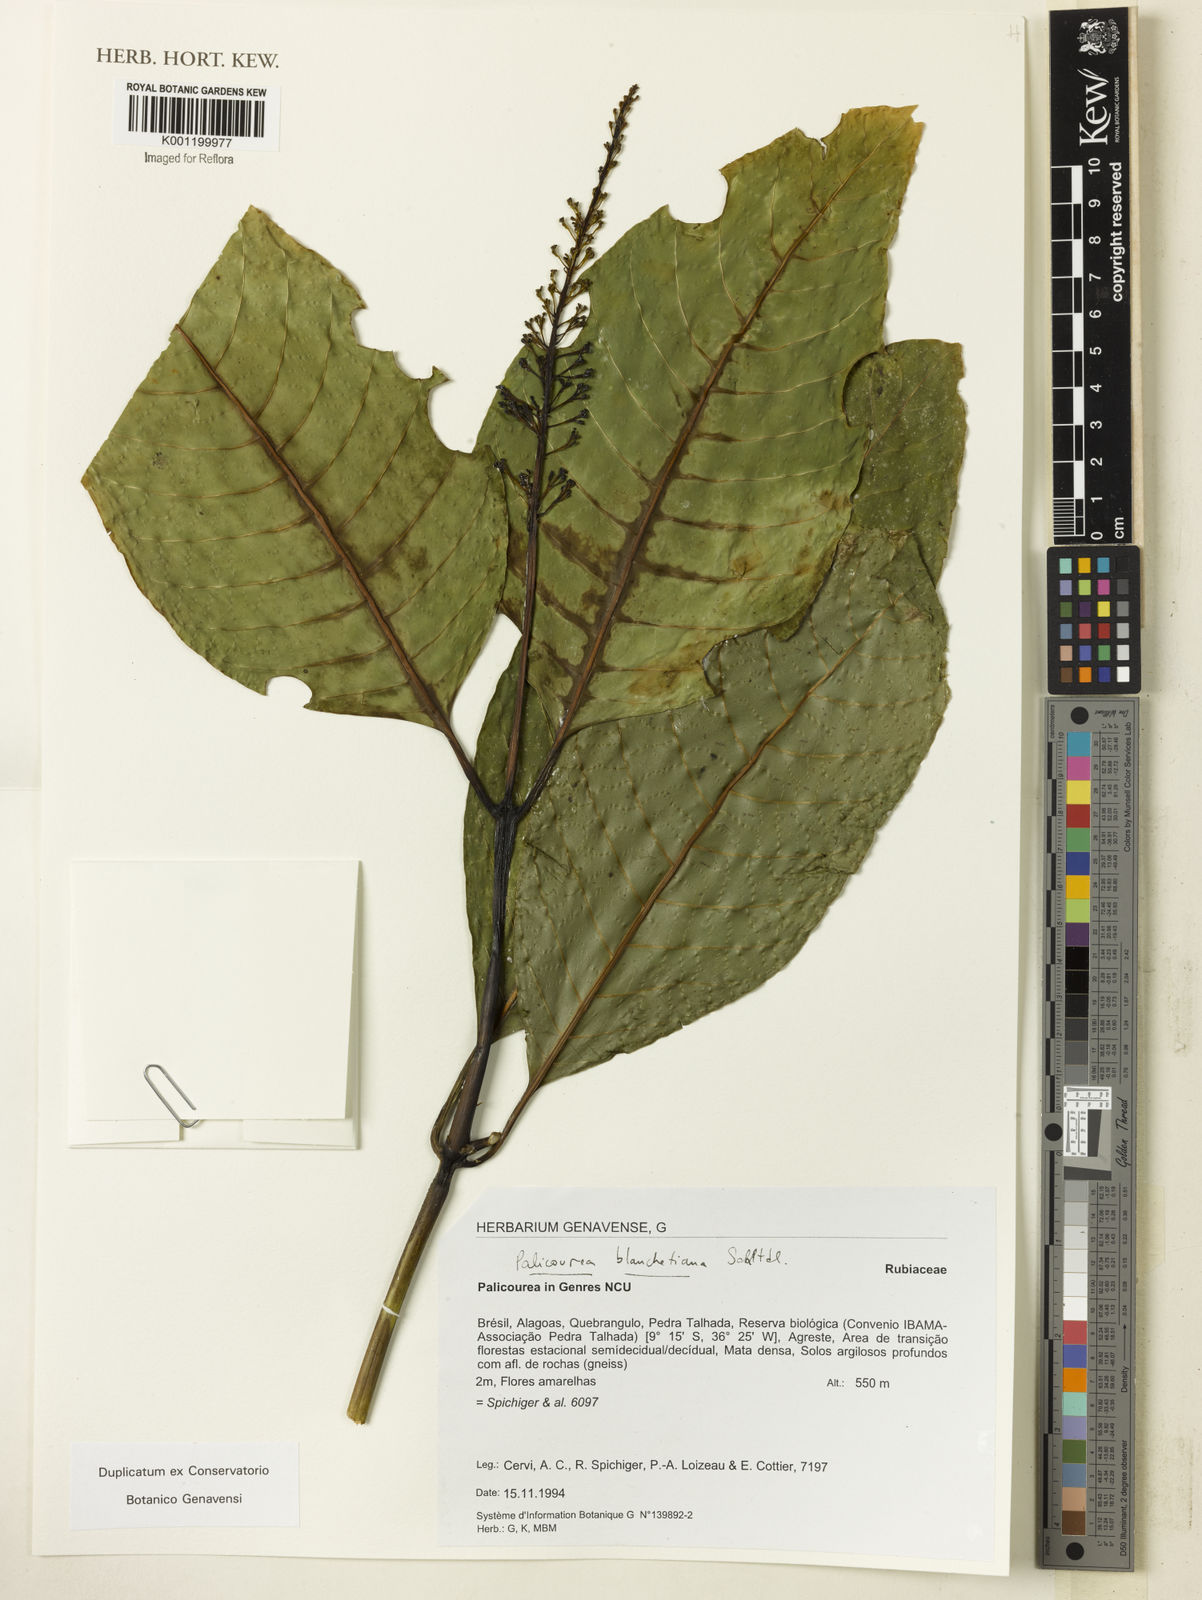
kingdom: Plantae
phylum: Tracheophyta
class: Magnoliopsida
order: Gentianales
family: Rubiaceae
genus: Palicourea
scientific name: Palicourea blanchetiana
